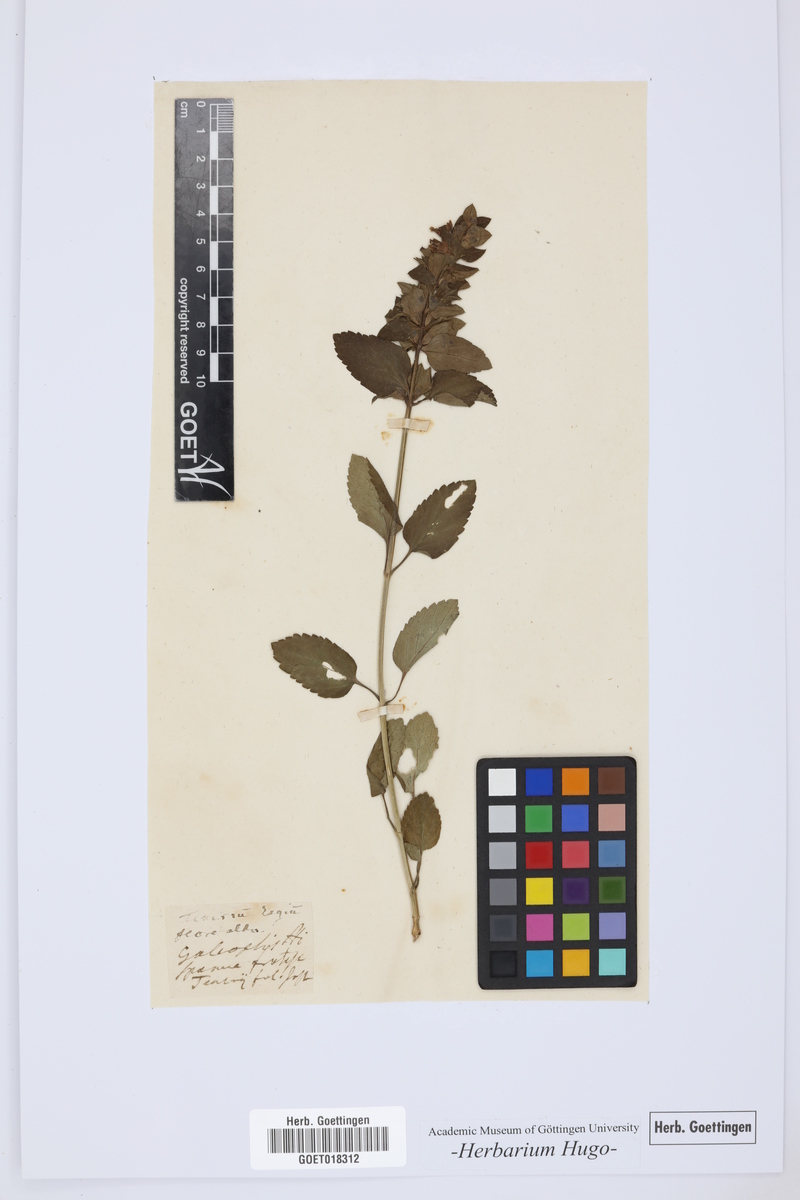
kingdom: Plantae
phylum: Tracheophyta
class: Magnoliopsida
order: Lamiales
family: Lamiaceae
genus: Teucrium
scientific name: Teucrium
